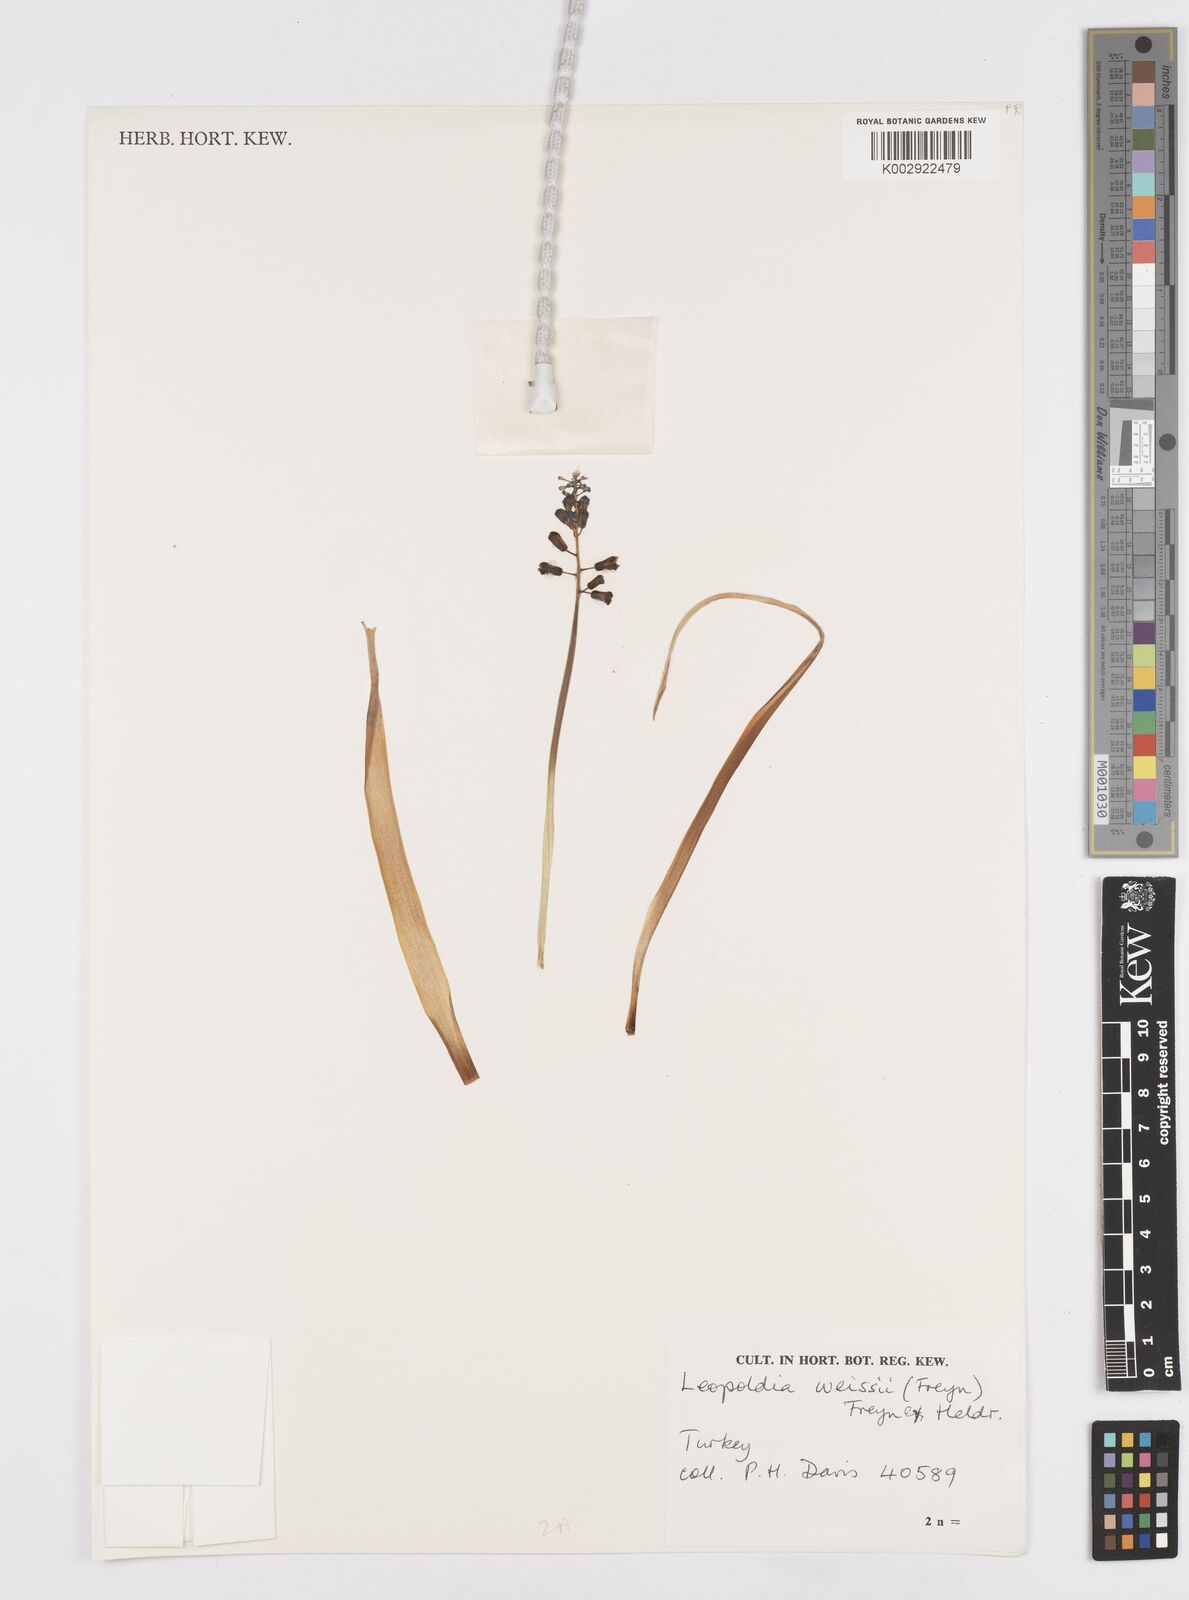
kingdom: Plantae
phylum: Tracheophyta
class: Liliopsida
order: Asparagales
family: Asparagaceae
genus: Muscari
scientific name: Muscari weissii
